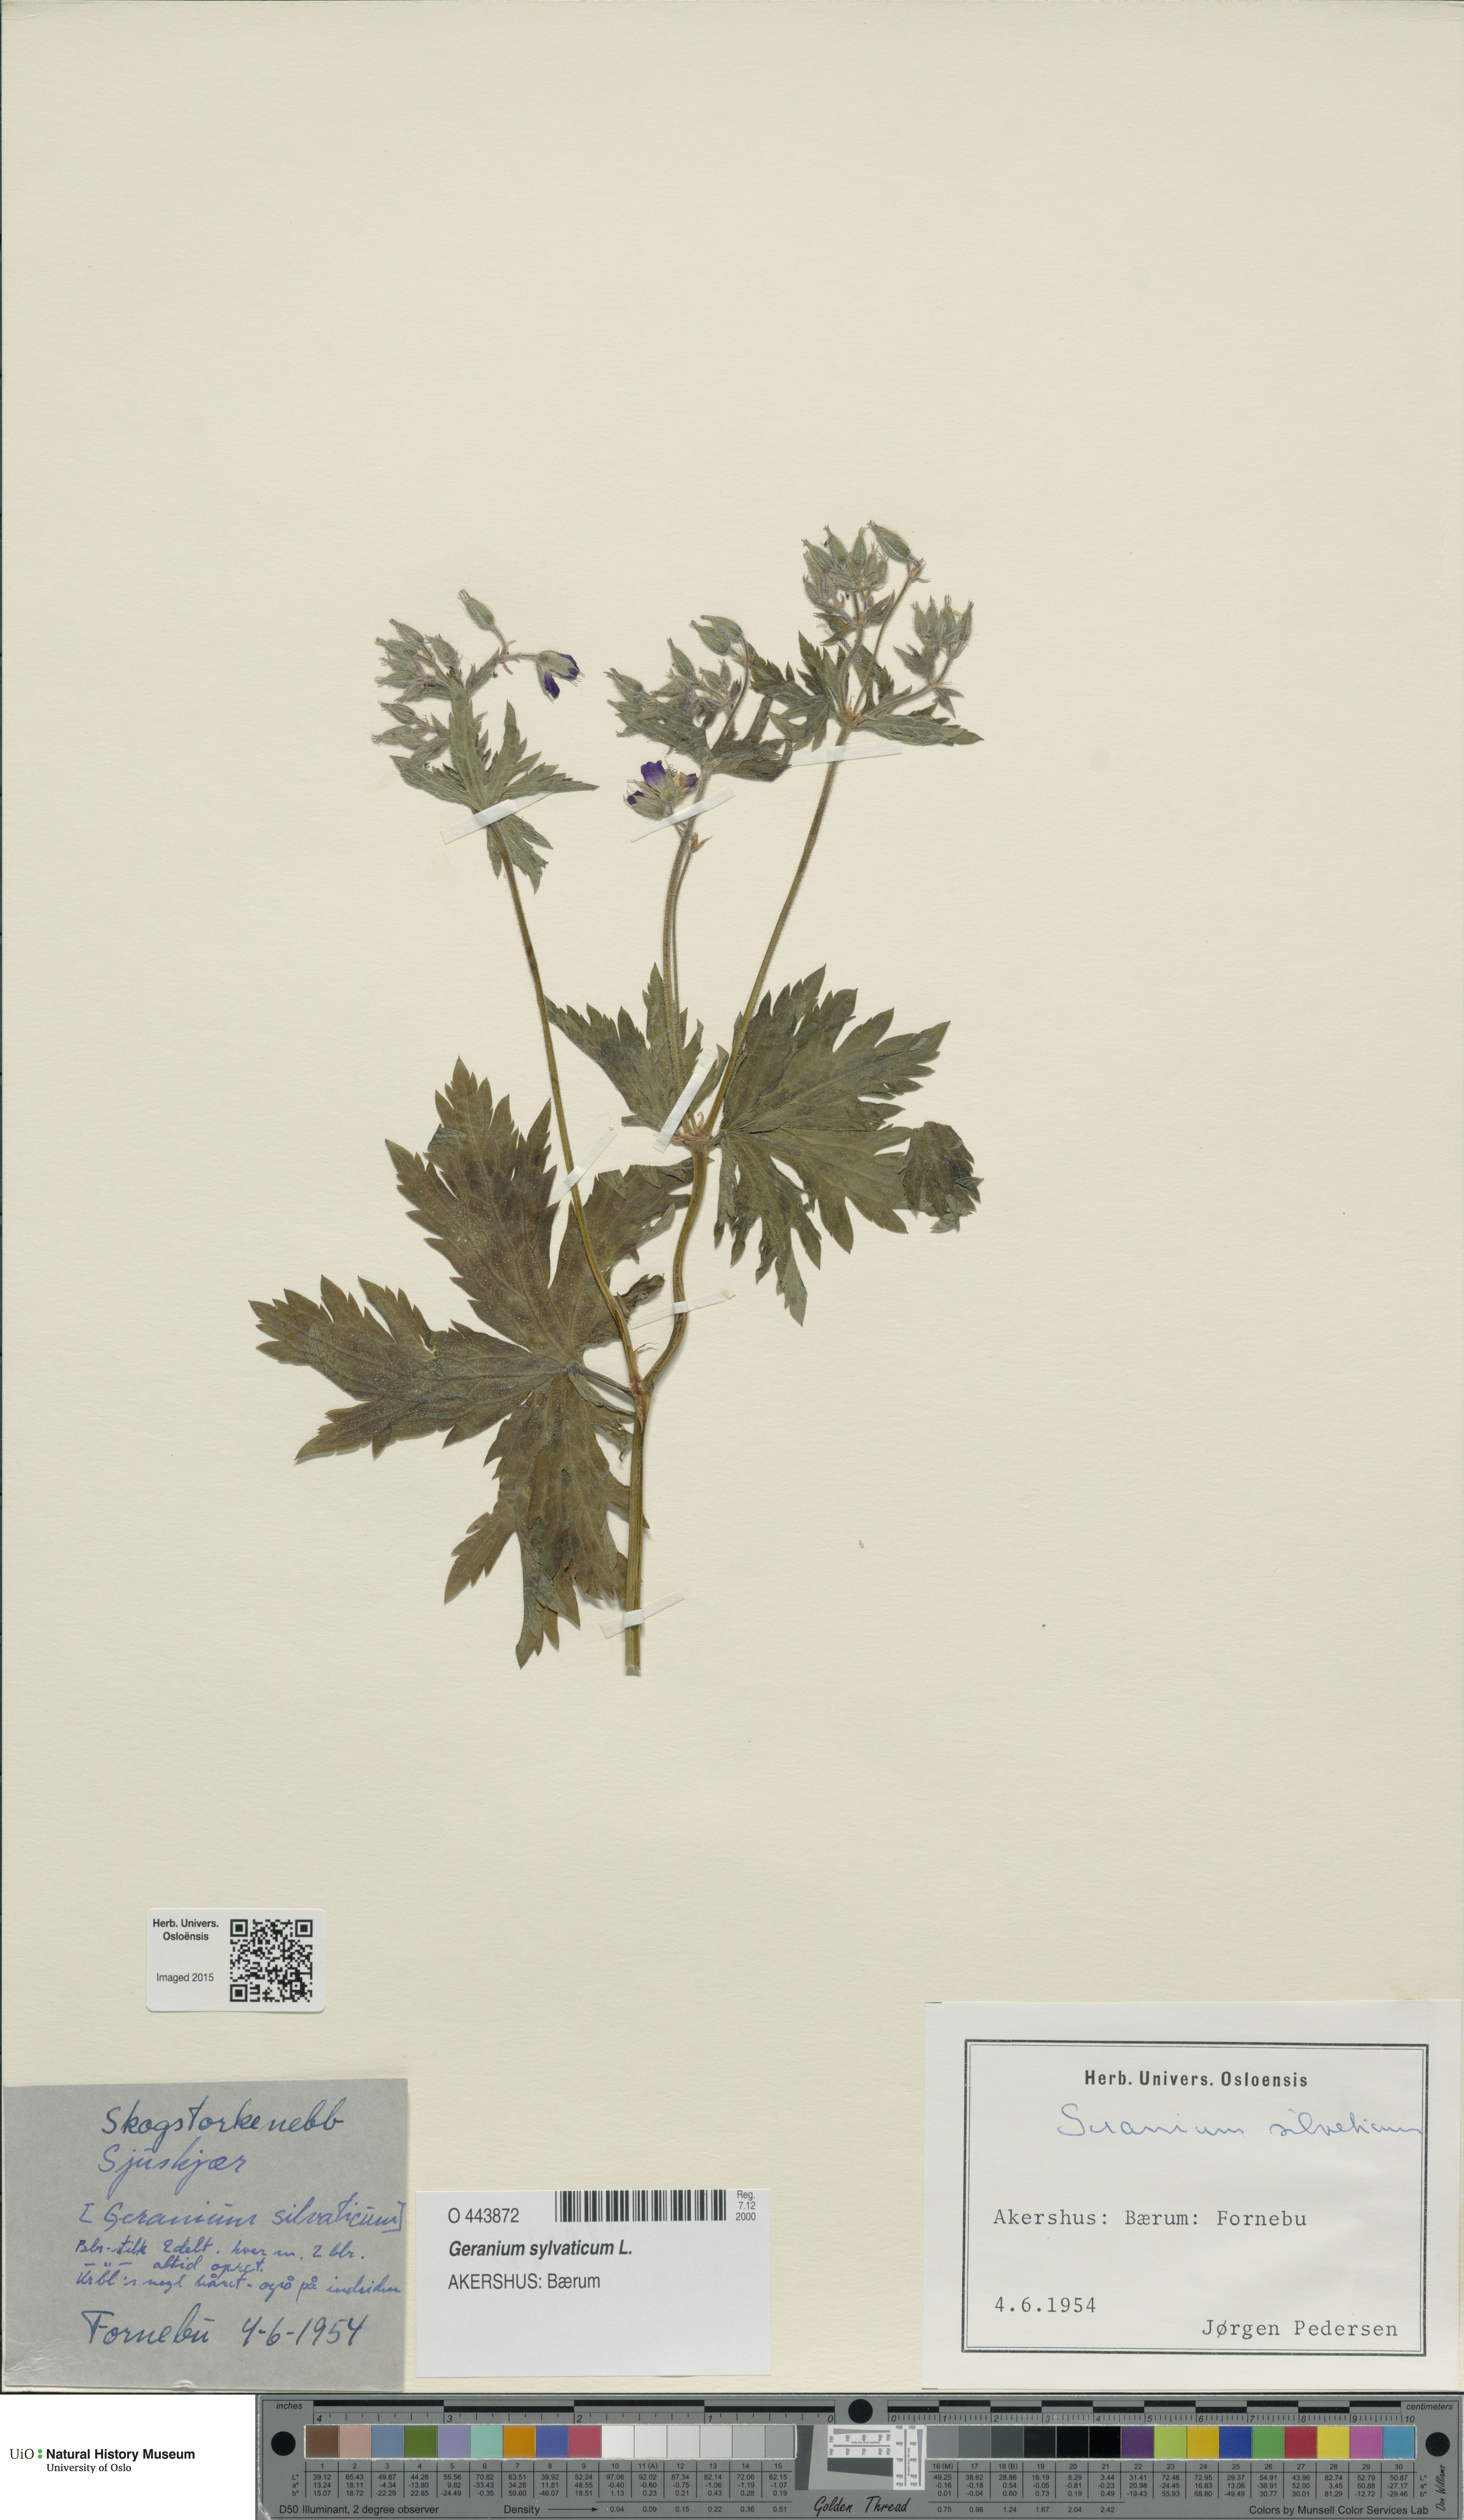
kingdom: Plantae
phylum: Tracheophyta
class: Magnoliopsida
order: Geraniales
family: Geraniaceae
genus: Geranium
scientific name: Geranium sylvaticum
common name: Wood crane's-bill
